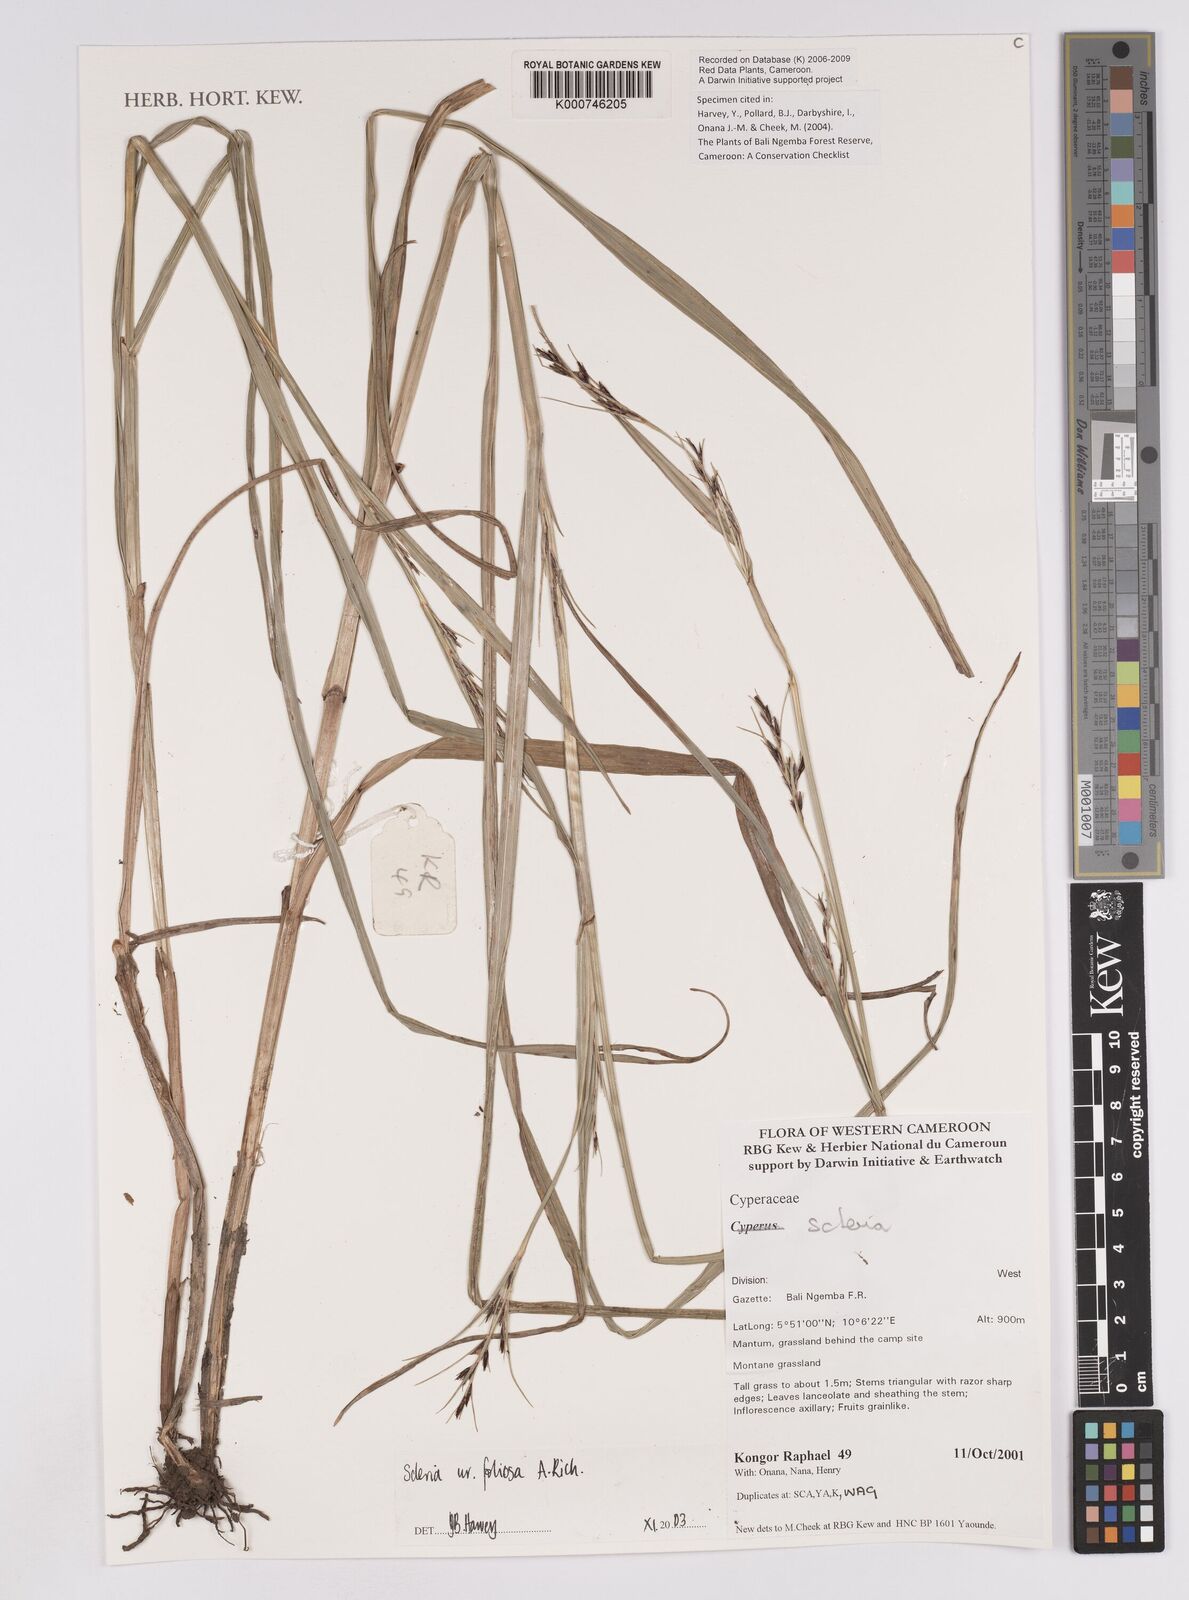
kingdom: Plantae
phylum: Tracheophyta
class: Liliopsida
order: Poales
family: Cyperaceae
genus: Scleria
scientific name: Scleria foliosa
